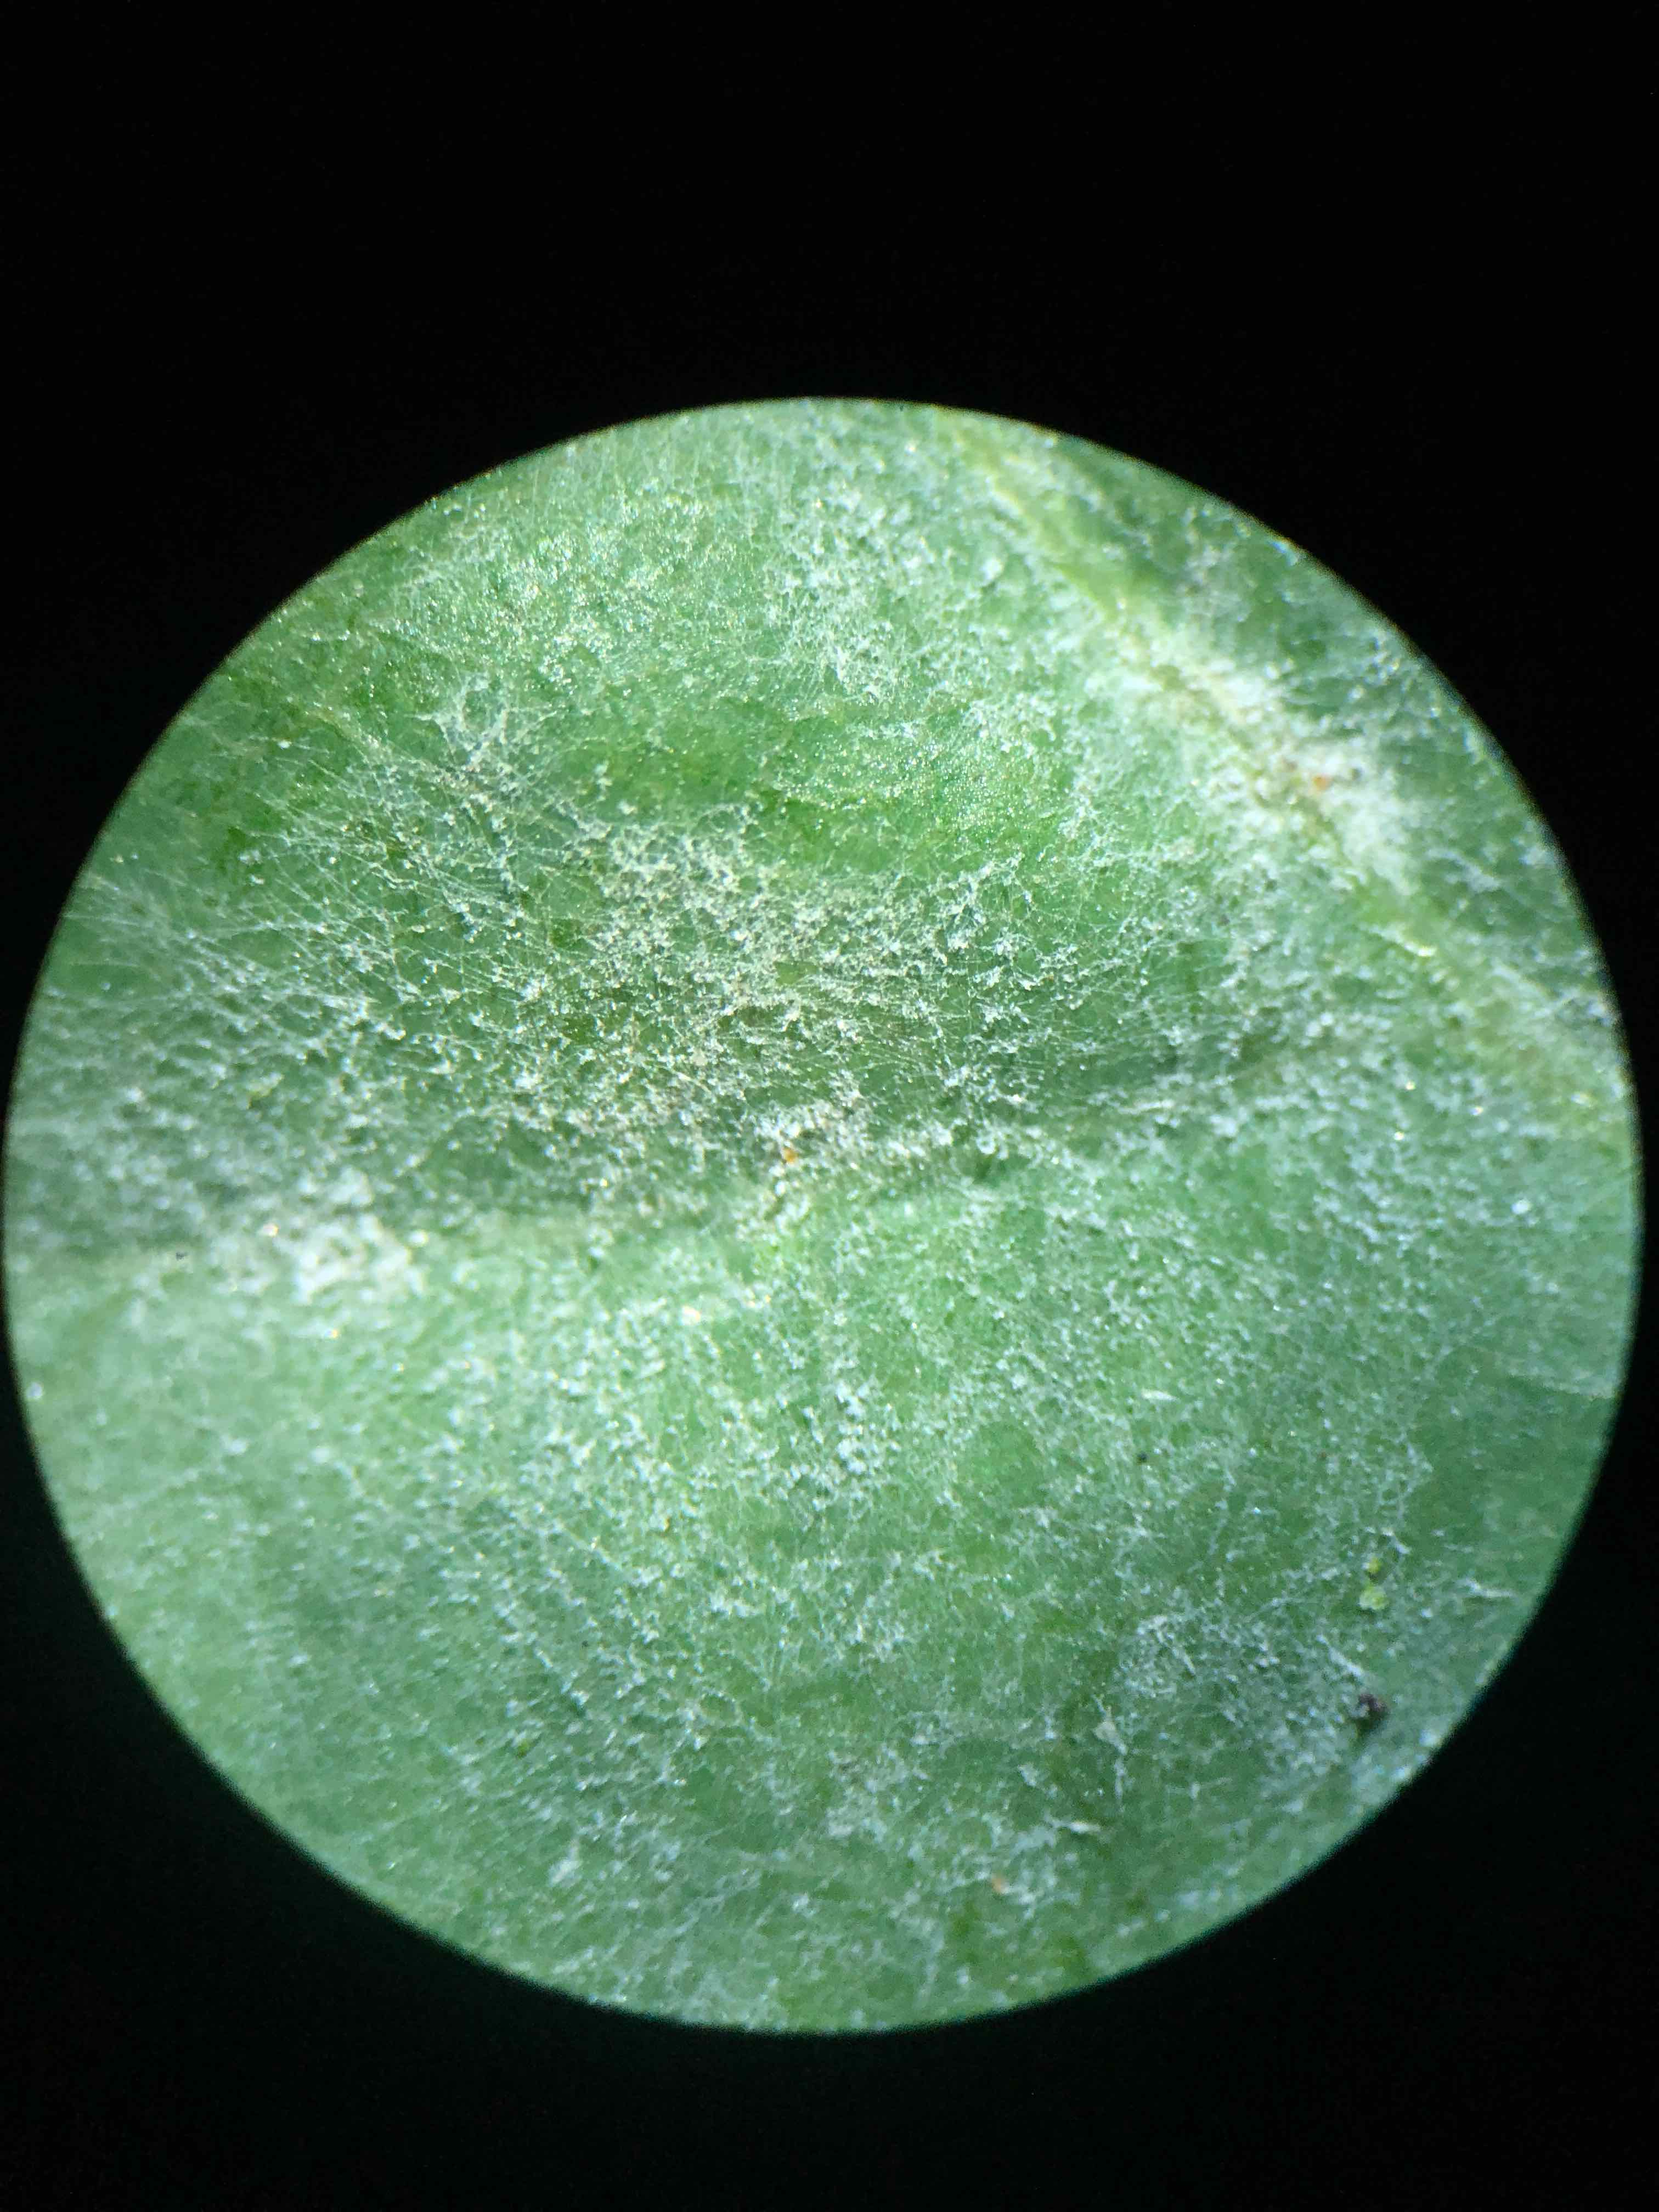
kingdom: Fungi
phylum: Ascomycota
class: Leotiomycetes
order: Helotiales
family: Erysiphaceae
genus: Erysiphe
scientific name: Erysiphe alphitoides
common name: ege-meldug
